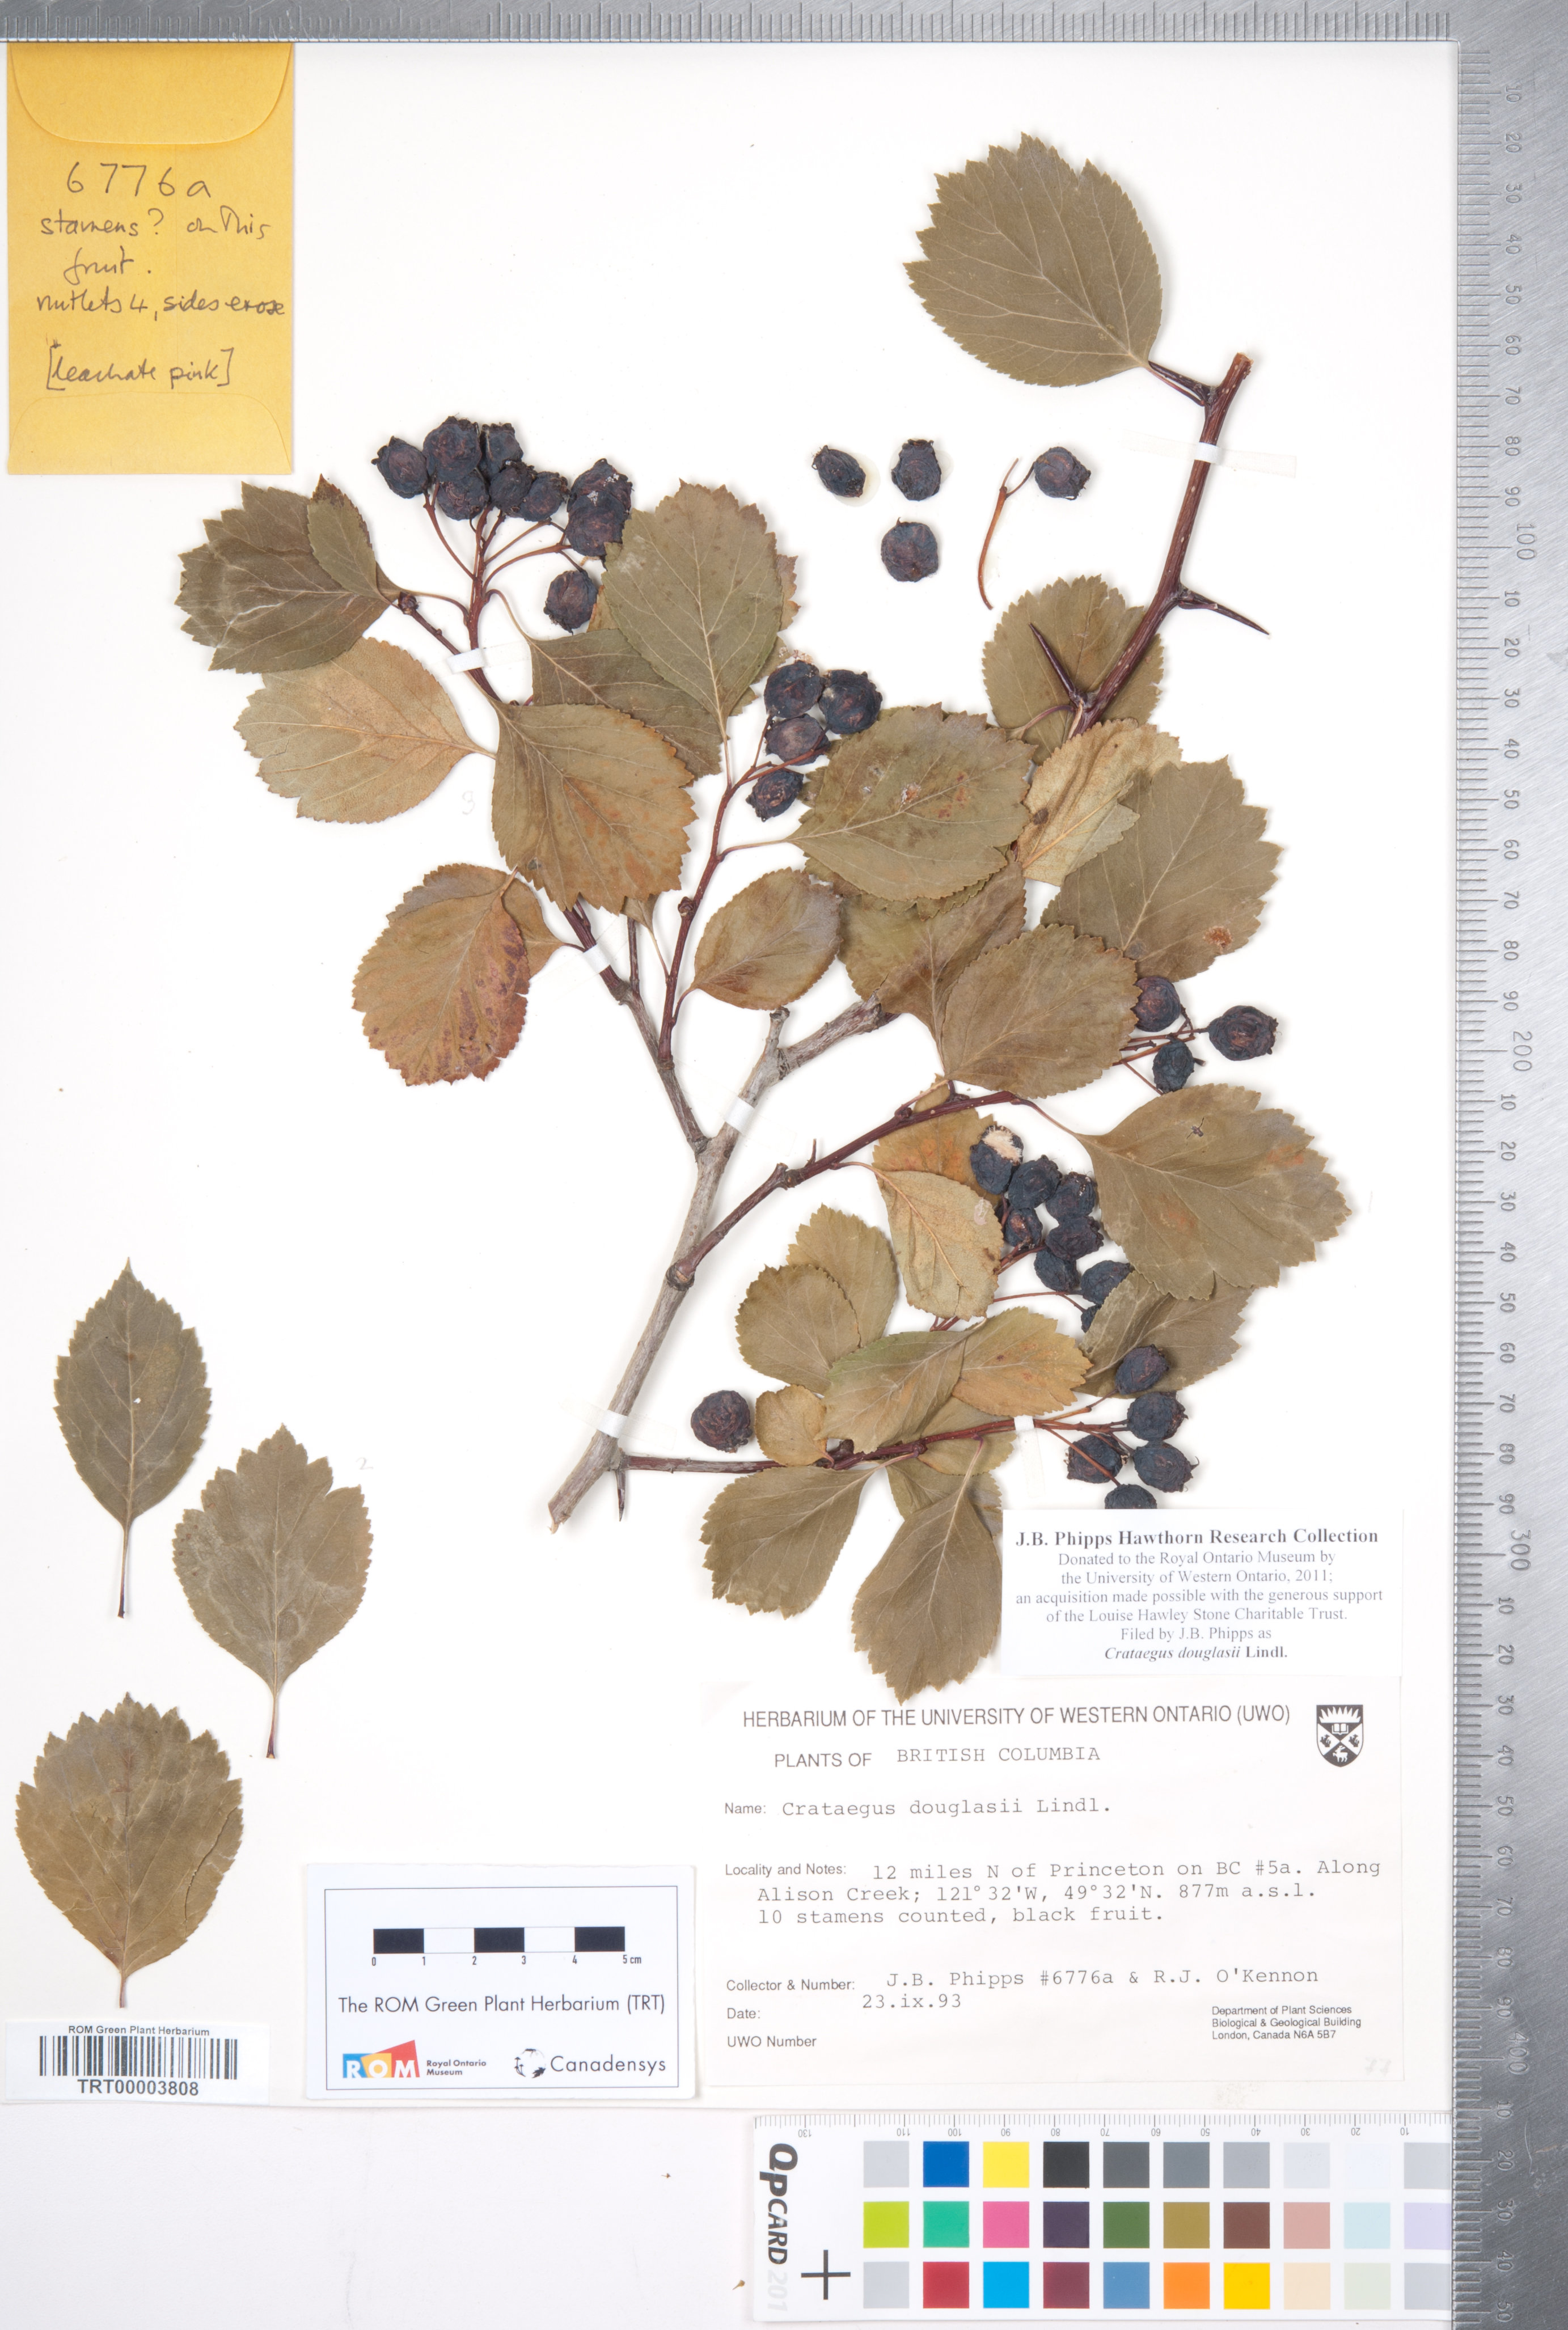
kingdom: Plantae
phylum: Tracheophyta
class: Magnoliopsida
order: Rosales
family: Rosaceae
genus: Crataegus
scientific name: Crataegus douglasii
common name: Black hawthorn
